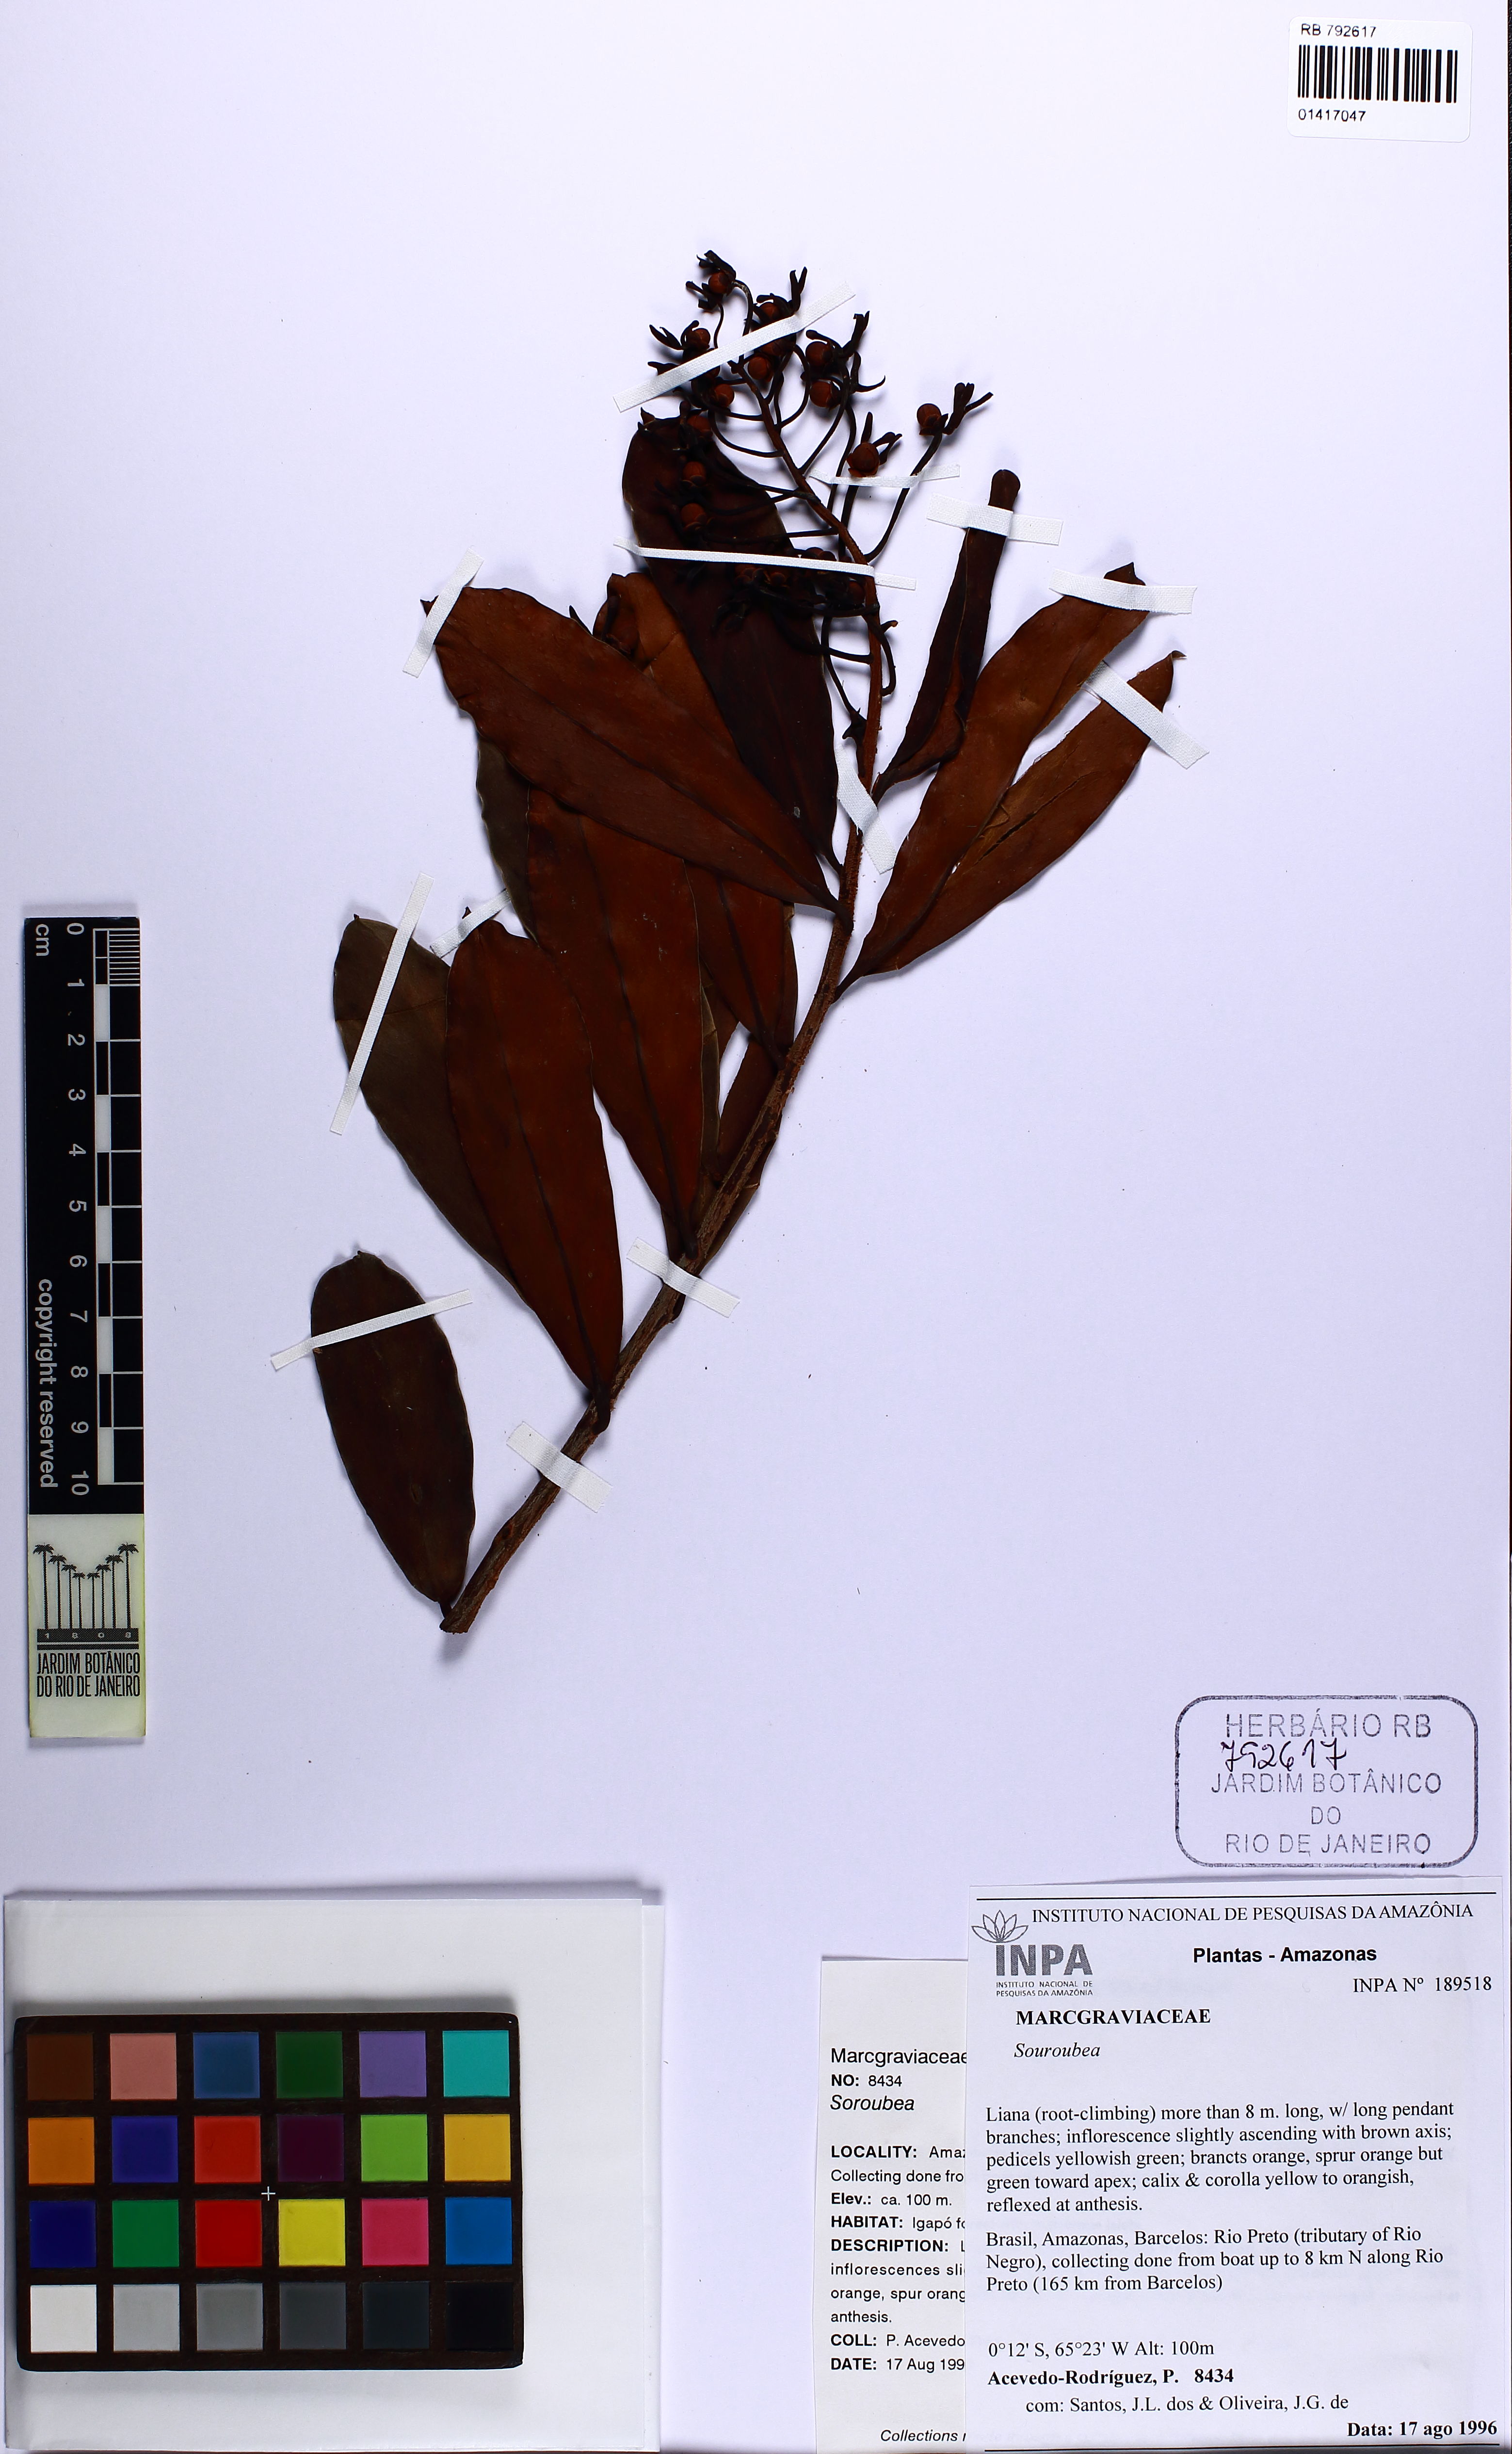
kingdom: Plantae
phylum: Tracheophyta
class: Magnoliopsida
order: Ericales
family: Marcgraviaceae
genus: Souroubea
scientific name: Souroubea
